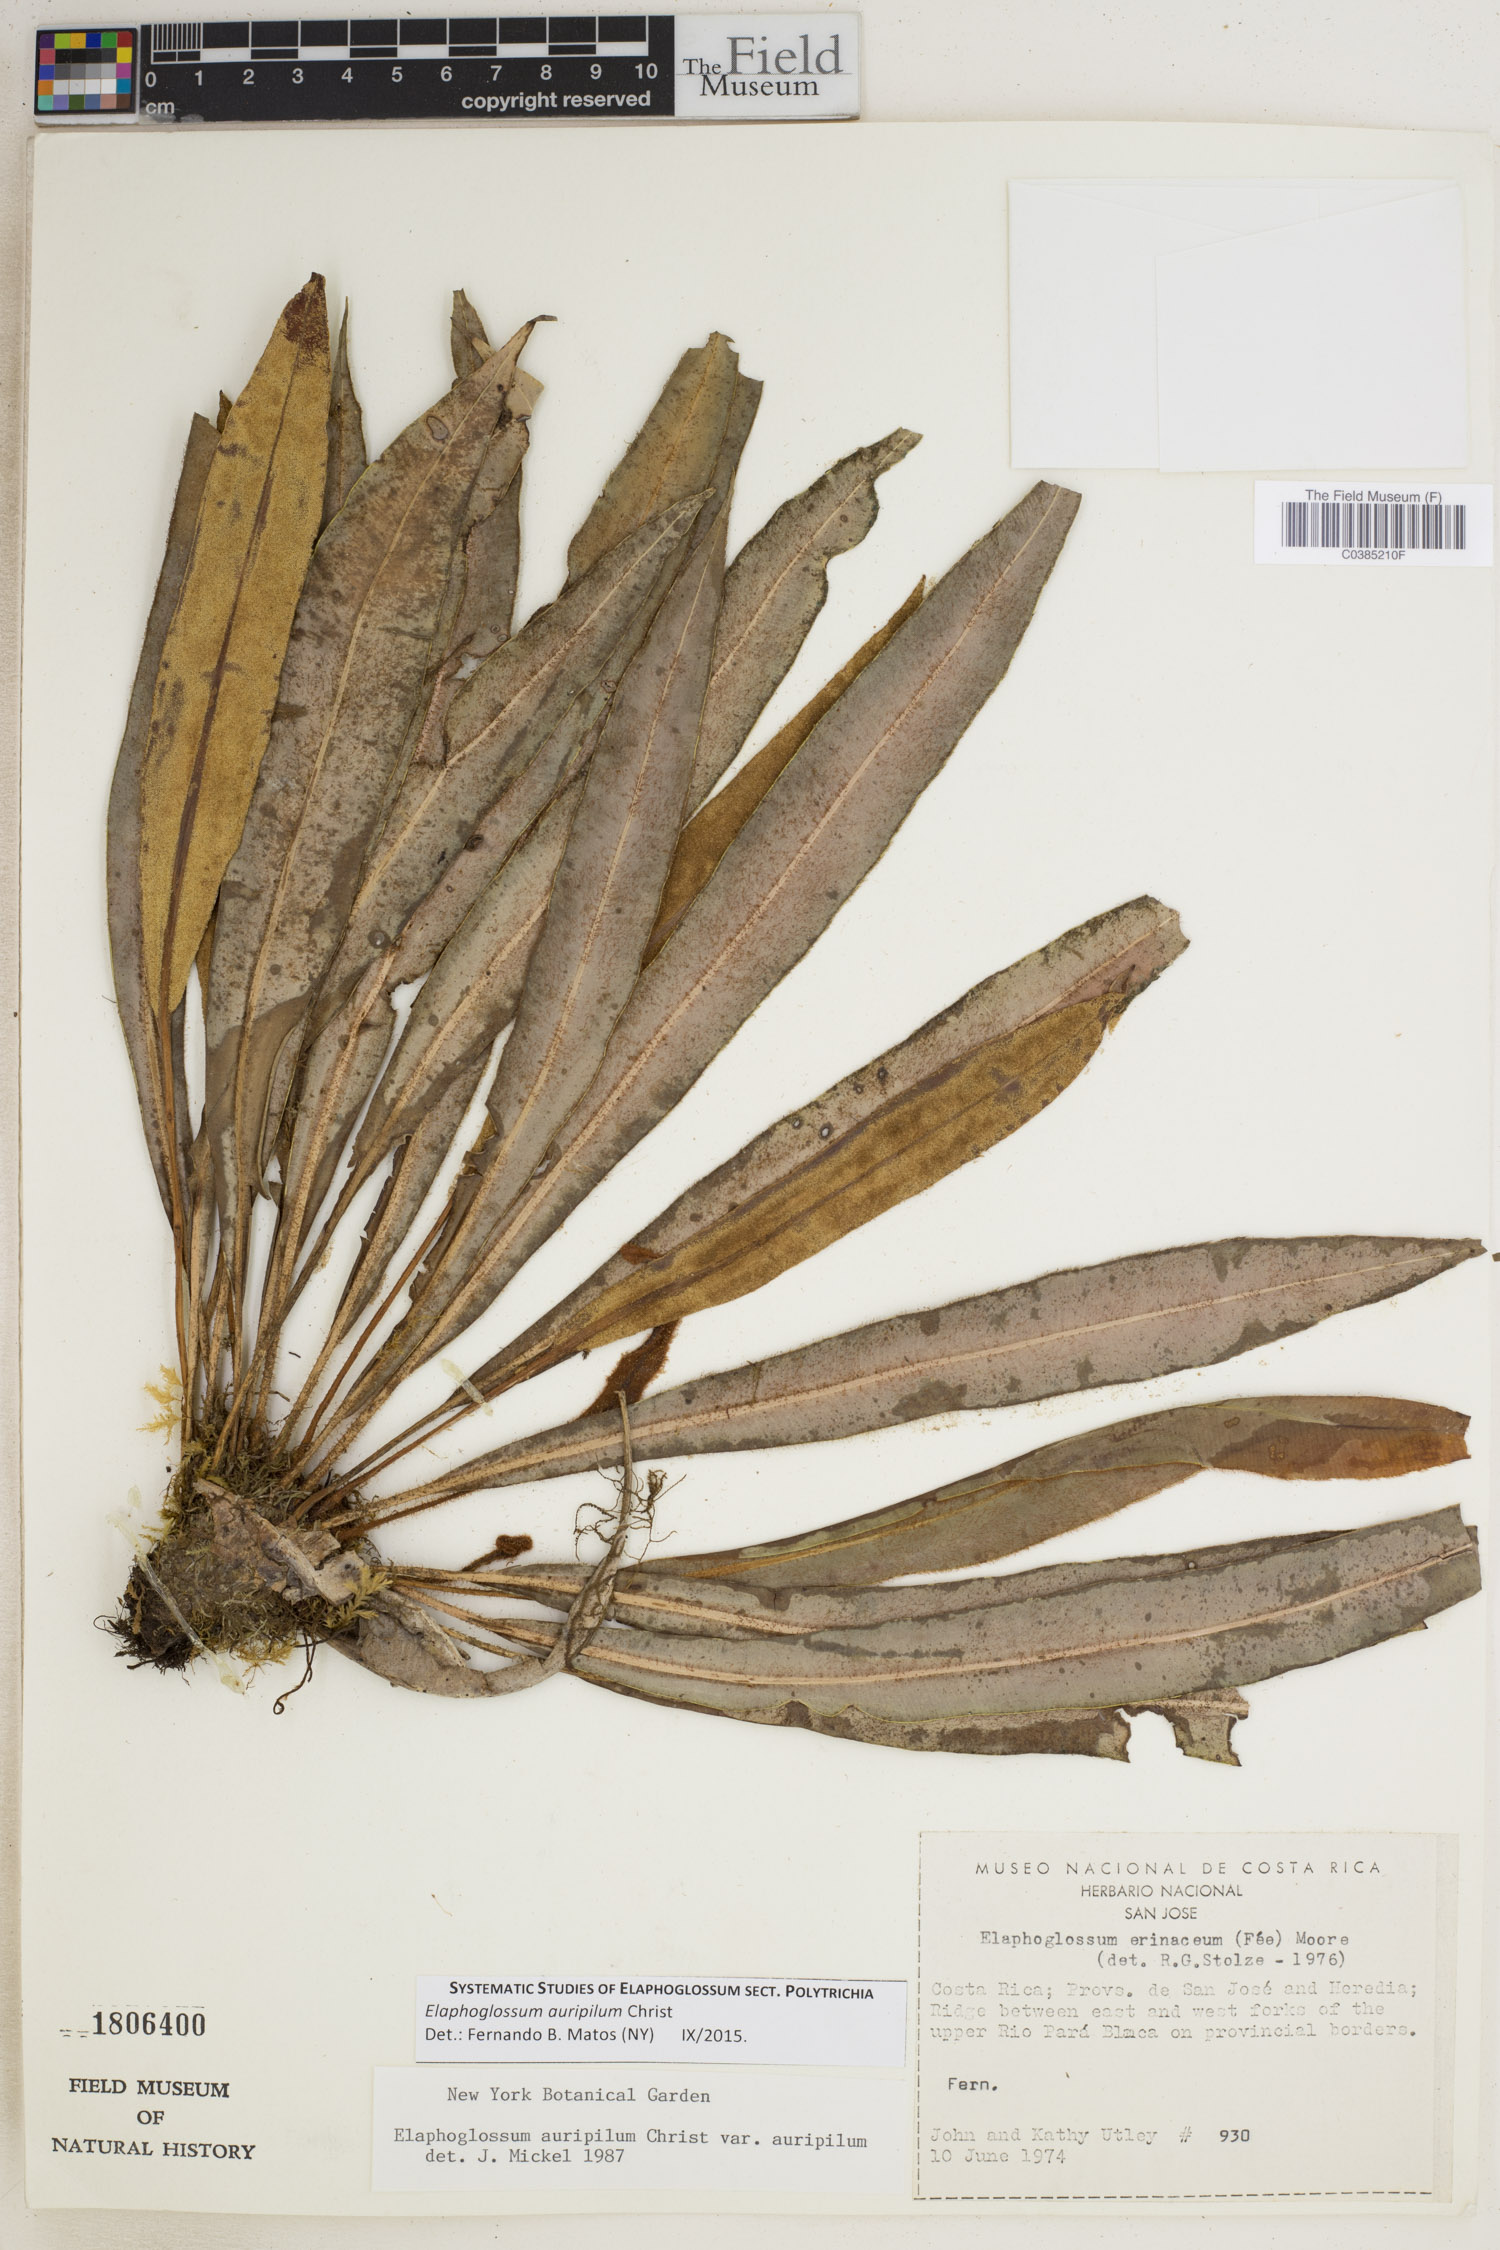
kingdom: Plantae
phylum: Tracheophyta
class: Polypodiopsida
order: Polypodiales
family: Dryopteridaceae
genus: Elaphoglossum
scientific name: Elaphoglossum auripilum
